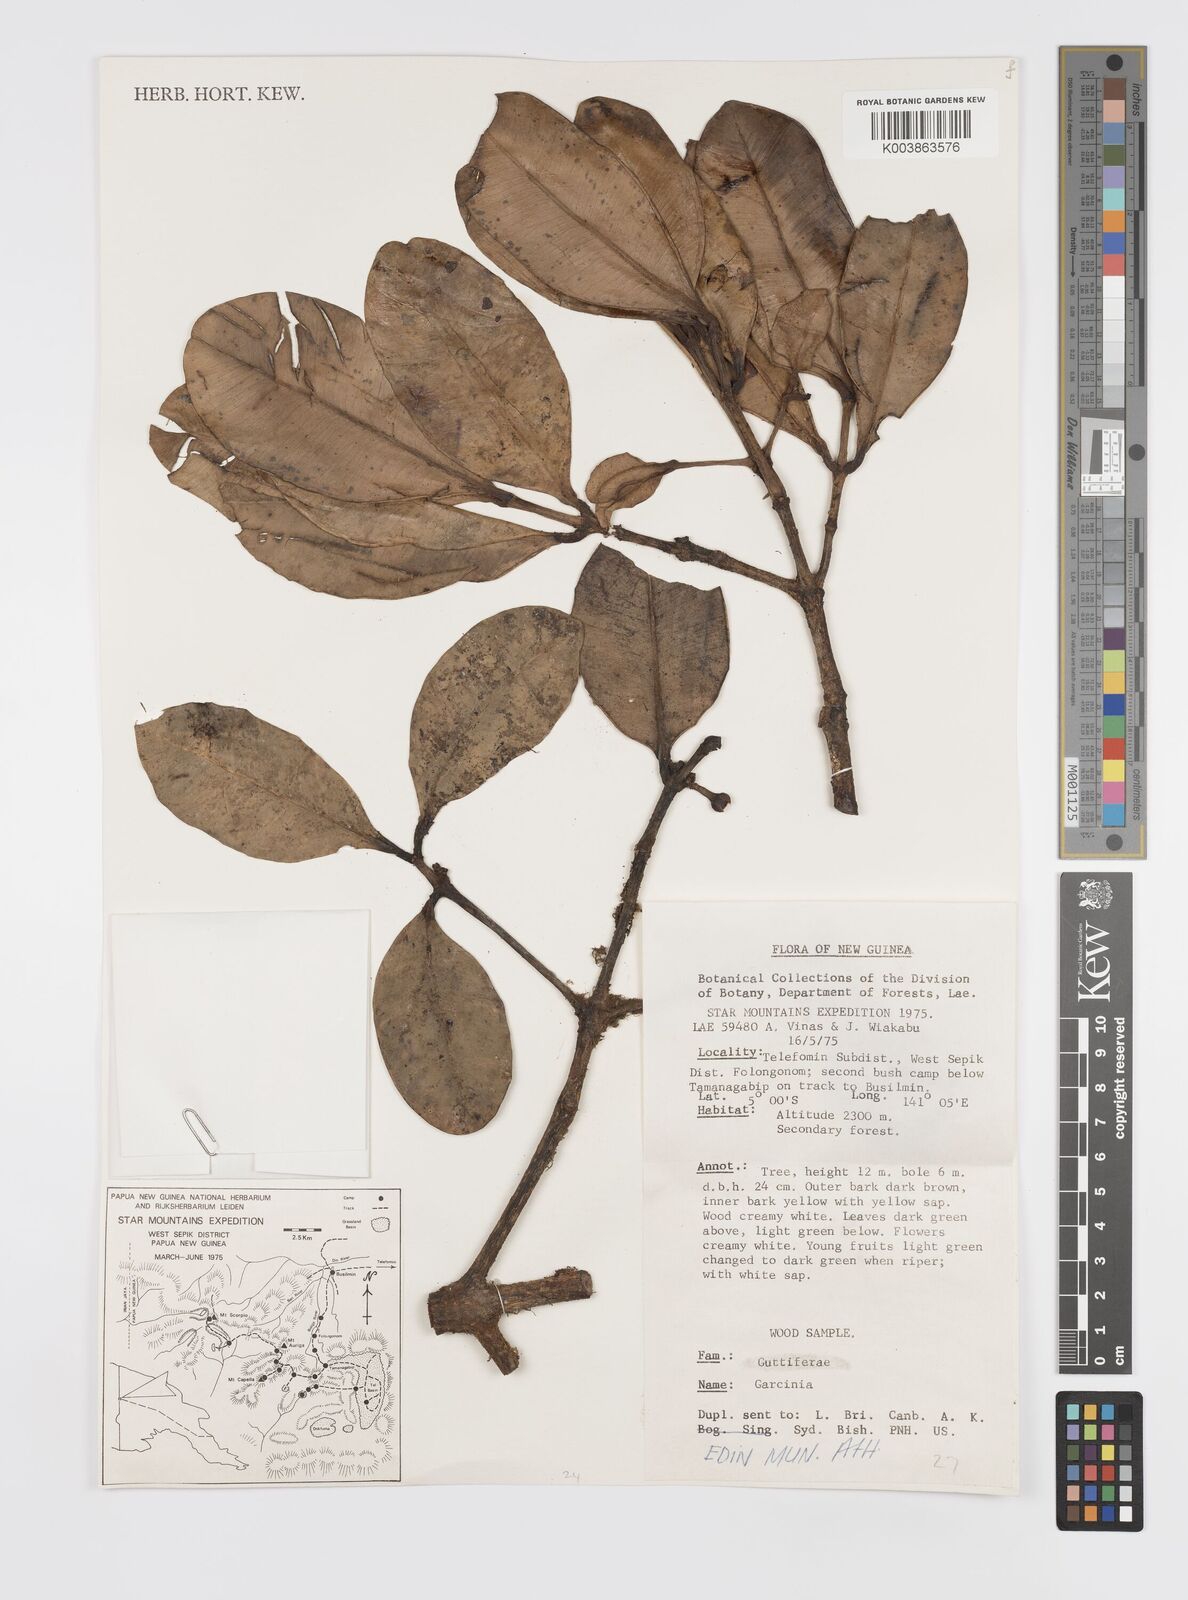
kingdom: Plantae
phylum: Tracheophyta
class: Magnoliopsida
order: Malpighiales
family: Clusiaceae
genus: Garcinia
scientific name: Garcinia
